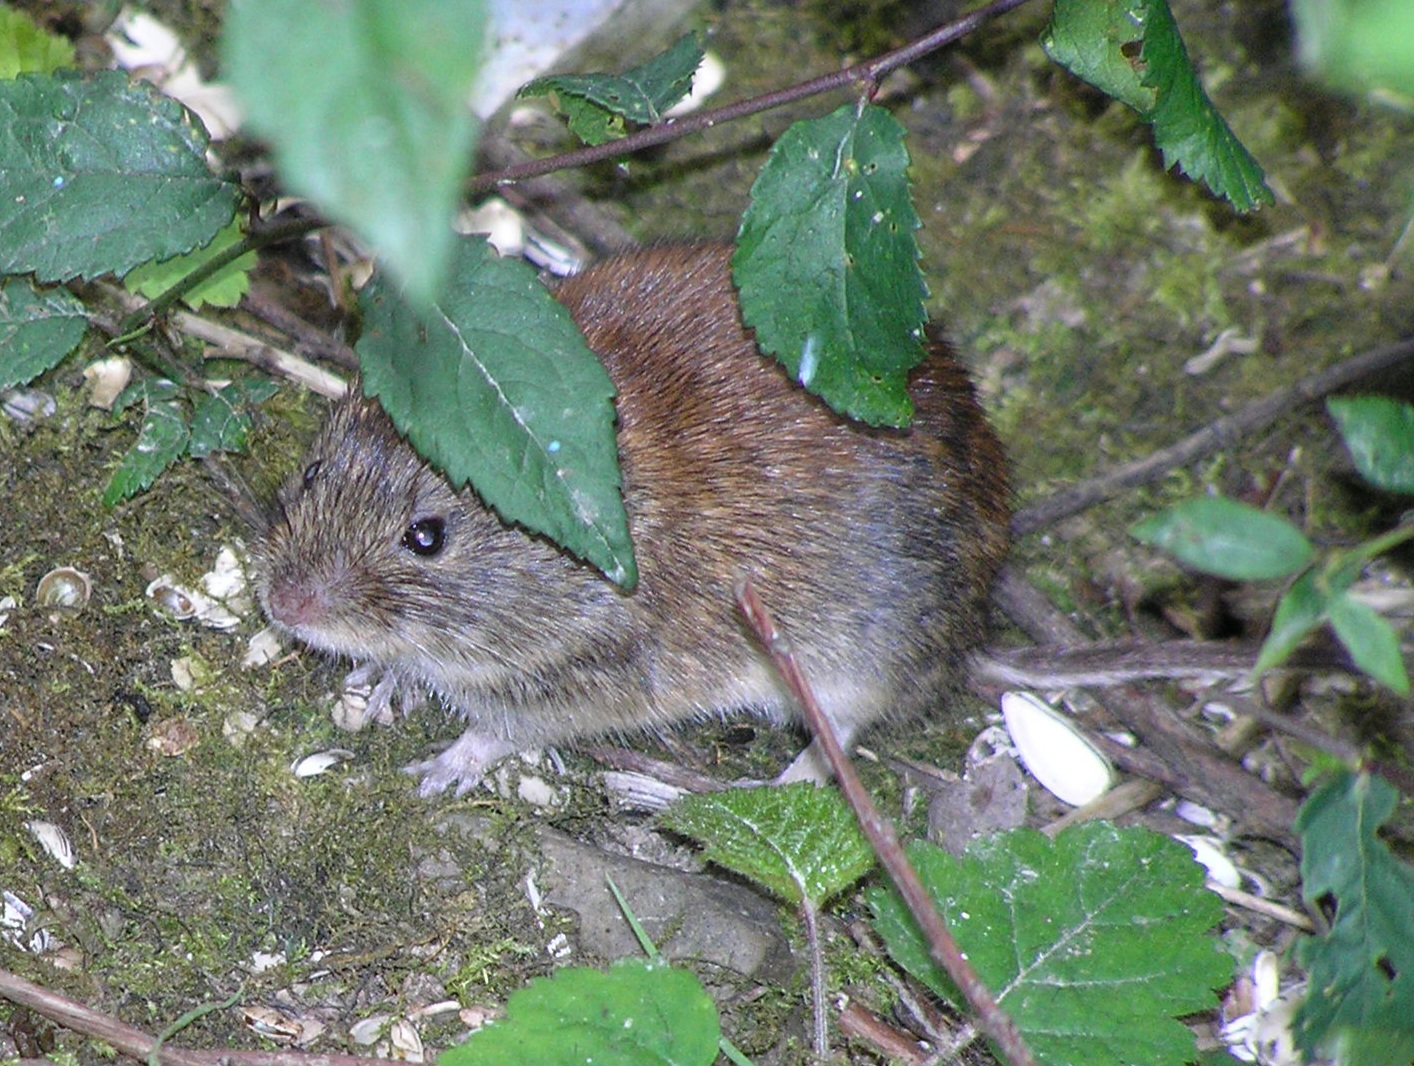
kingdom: Animalia
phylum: Chordata
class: Mammalia
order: Rodentia
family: Cricetidae
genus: Myodes
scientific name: Myodes glareolus
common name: Rødmus
